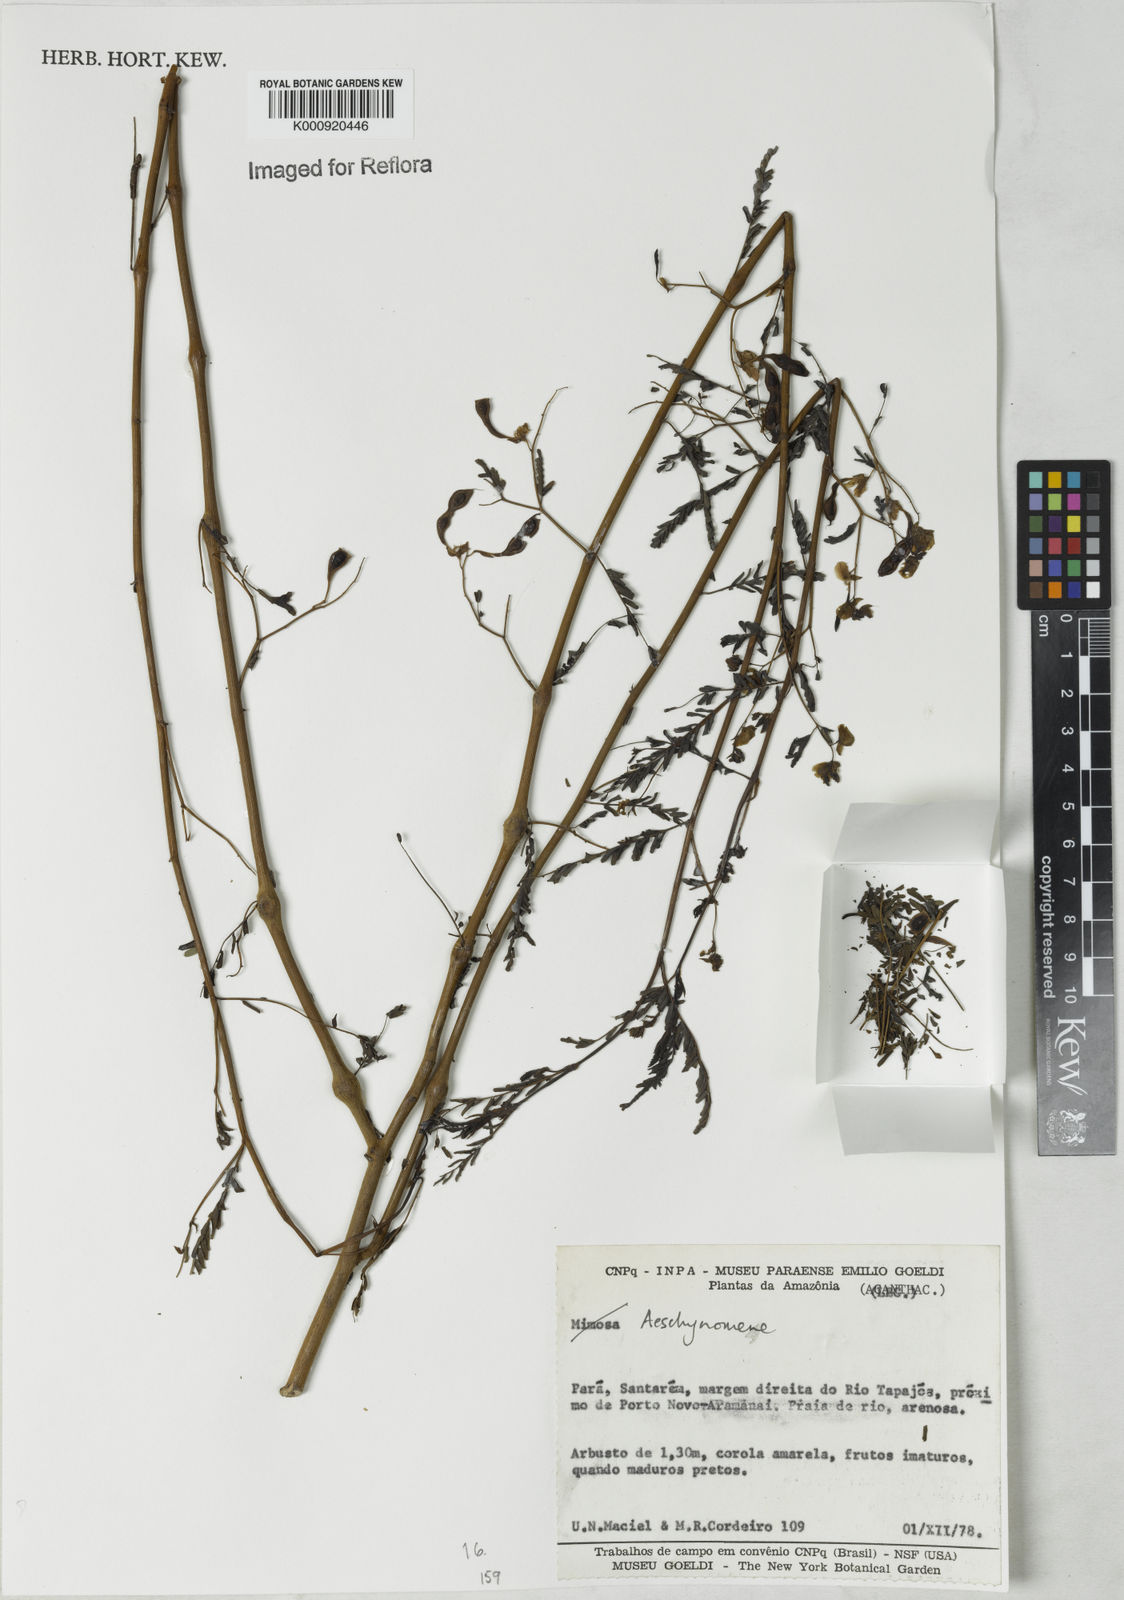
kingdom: Plantae
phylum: Tracheophyta
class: Magnoliopsida
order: Fabales
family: Fabaceae
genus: Aeschynomene
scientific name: Aeschynomene
